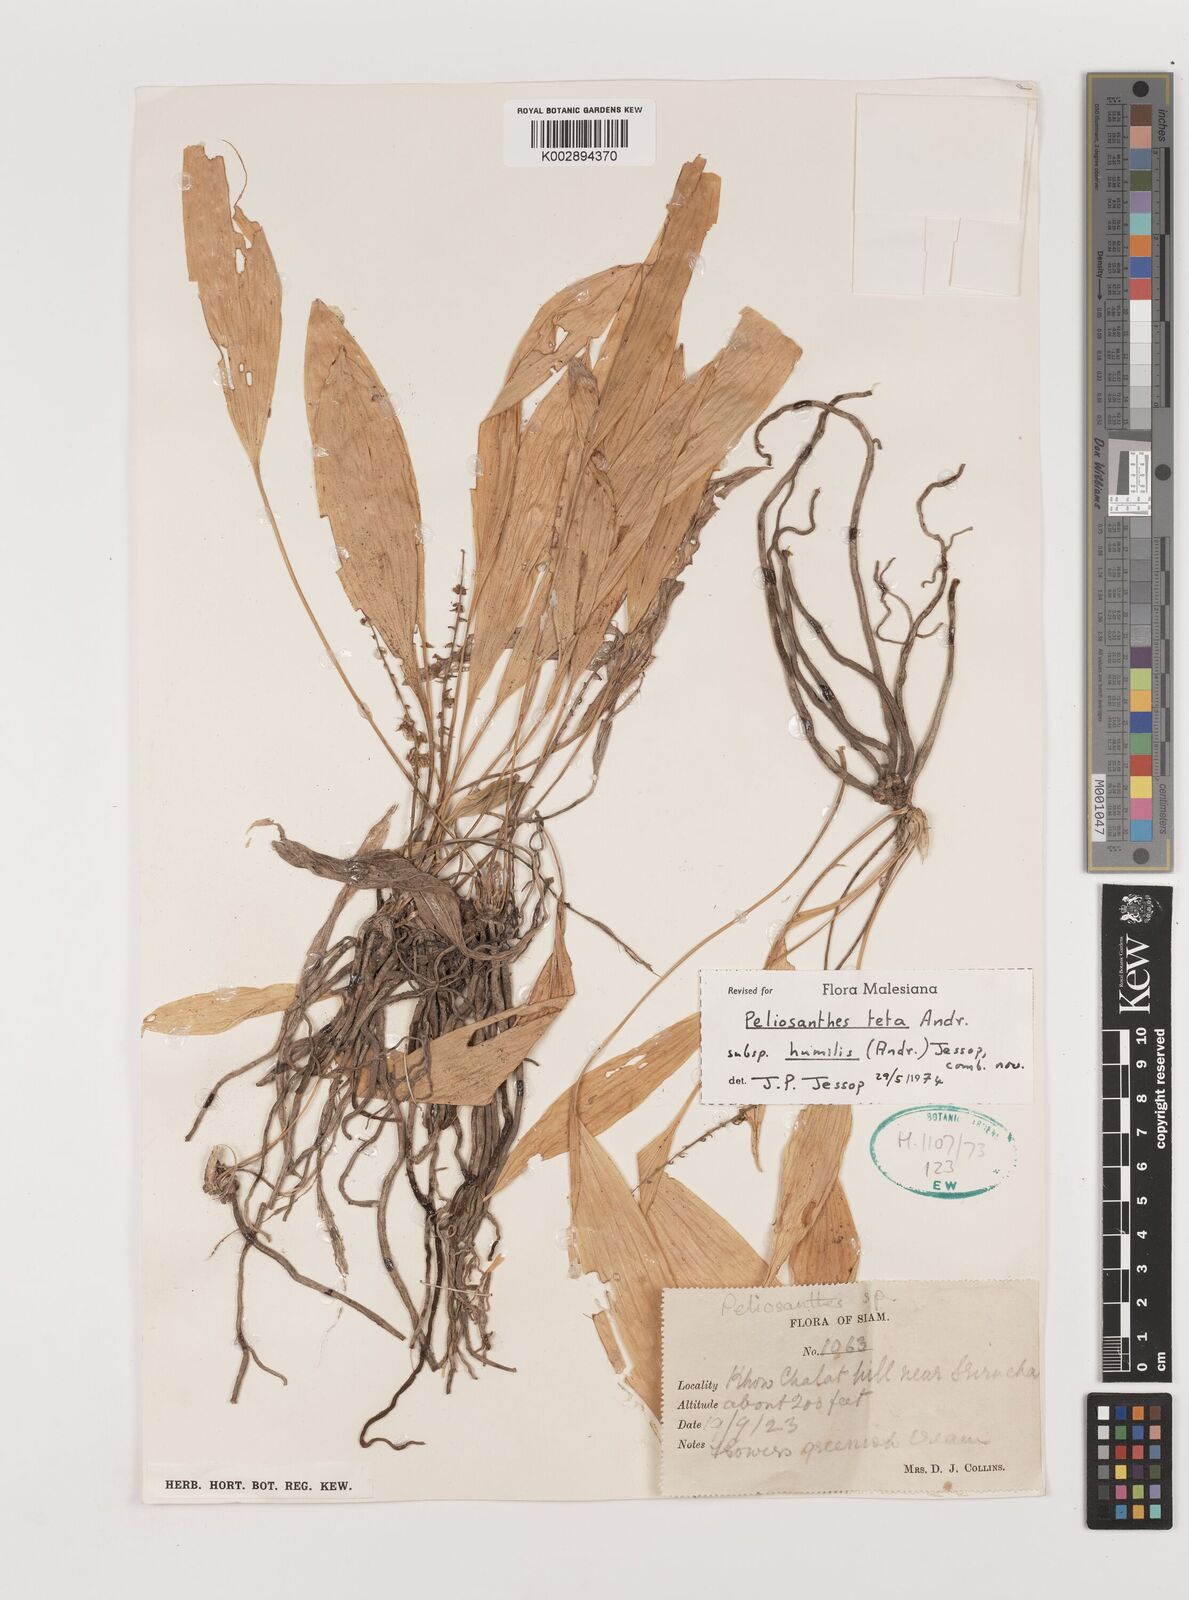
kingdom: Plantae
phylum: Tracheophyta
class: Liliopsida
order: Asparagales
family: Asparagaceae
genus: Peliosanthes
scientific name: Peliosanthes teta
